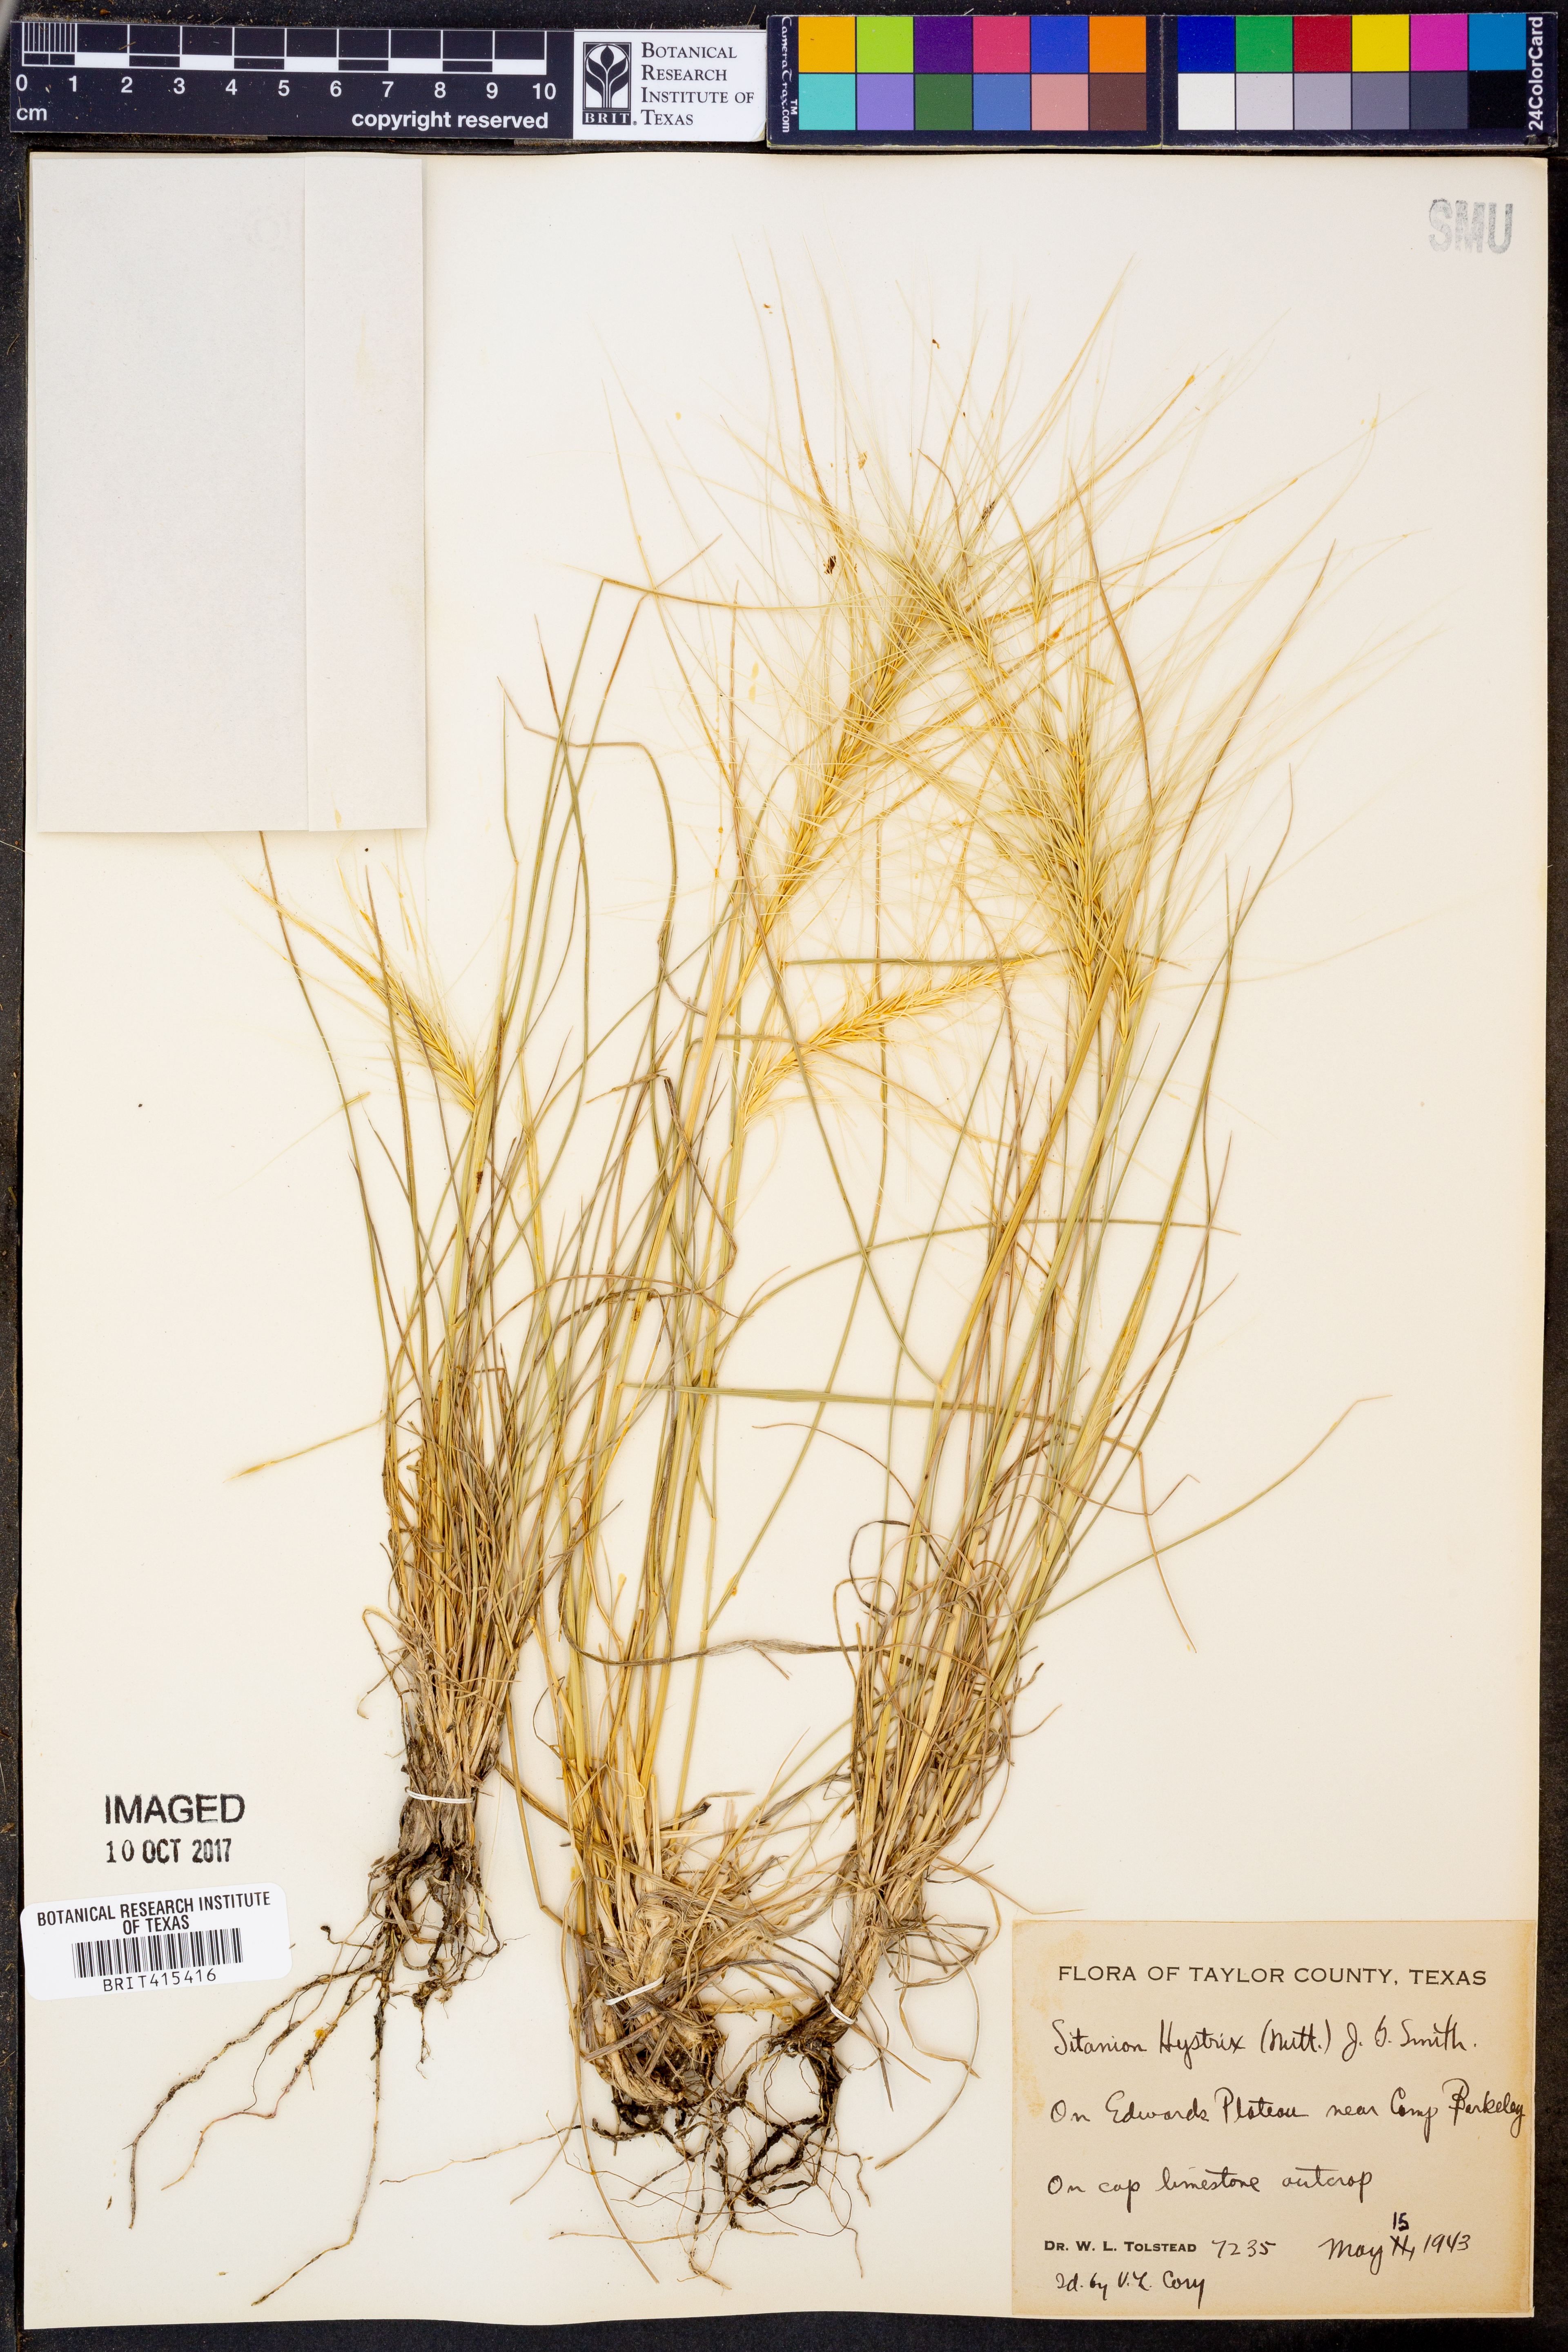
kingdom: Plantae
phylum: Tracheophyta
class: Liliopsida
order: Poales
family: Poaceae
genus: Elymus
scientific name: Elymus elymoides
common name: Bottlebrush squirreltail
